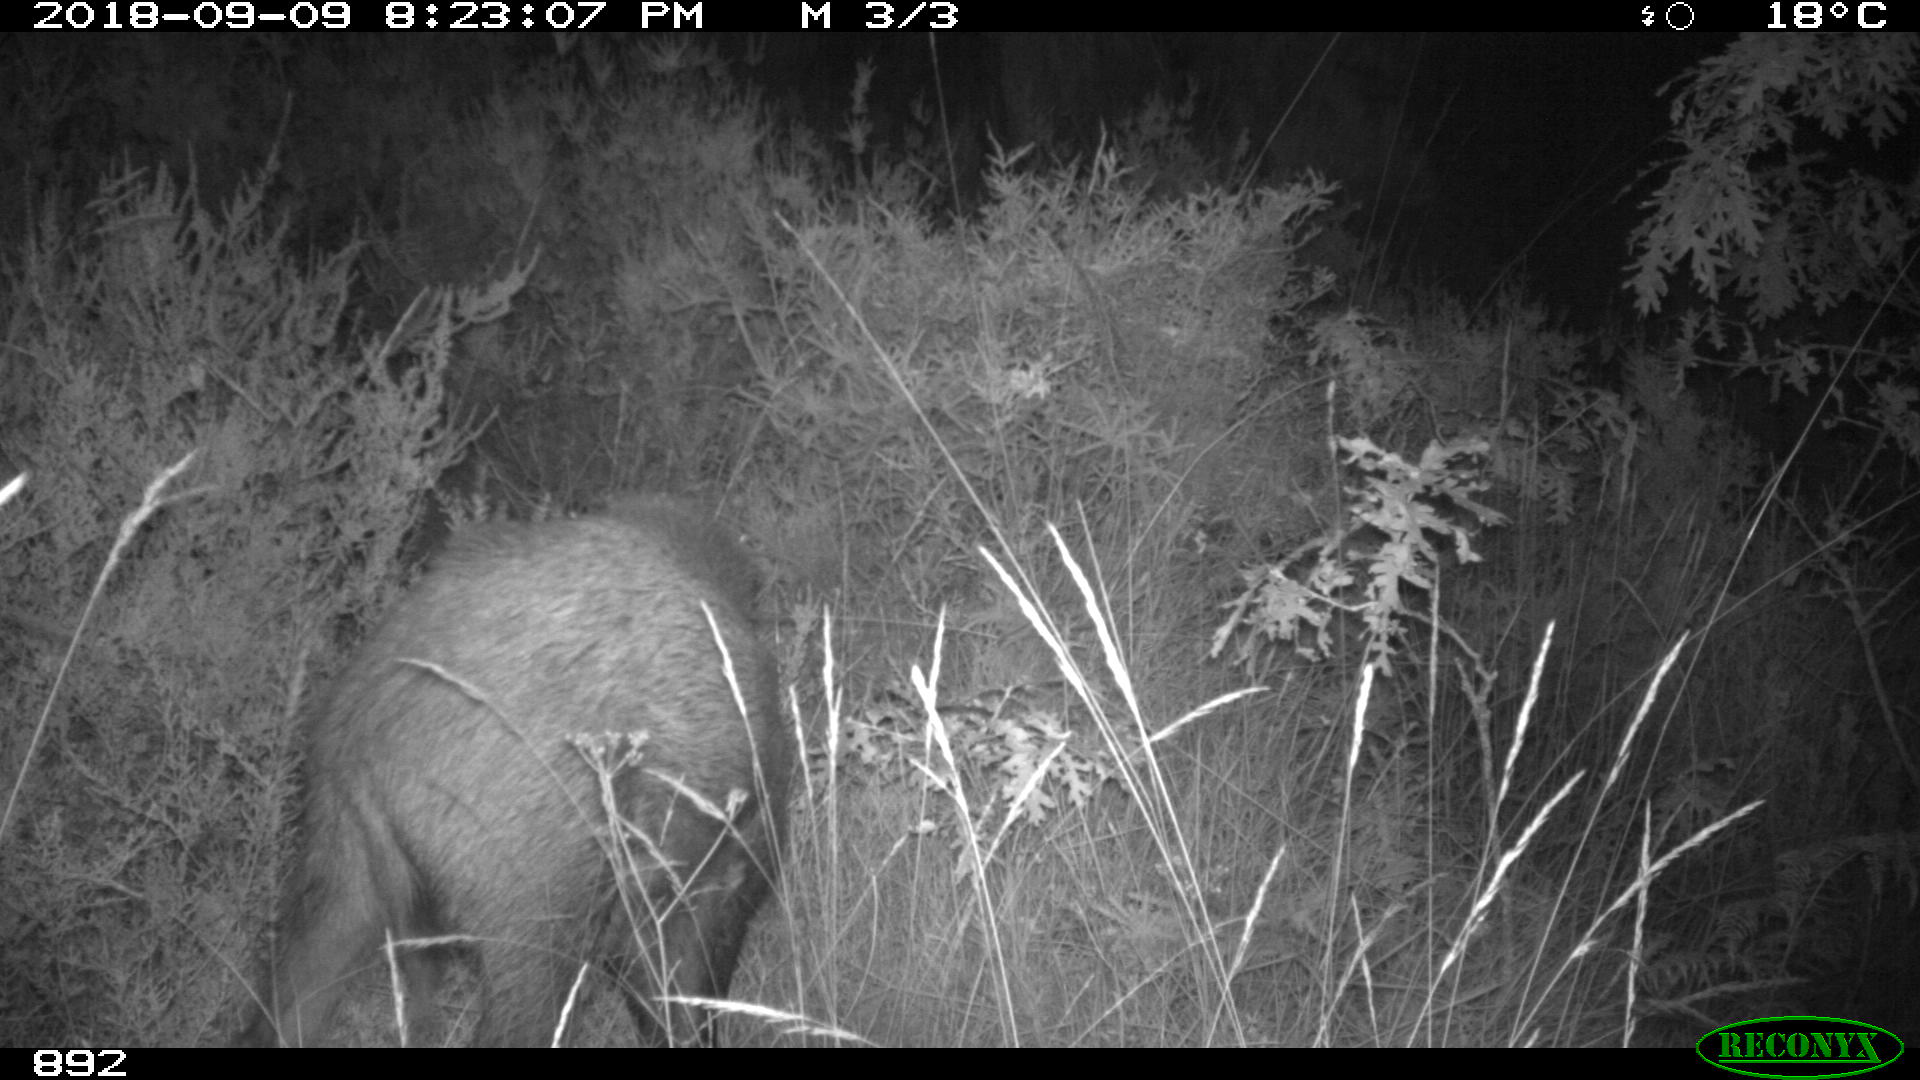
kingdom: Animalia
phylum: Chordata
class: Mammalia
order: Artiodactyla
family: Suidae
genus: Sus
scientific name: Sus scrofa
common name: Wild boar
